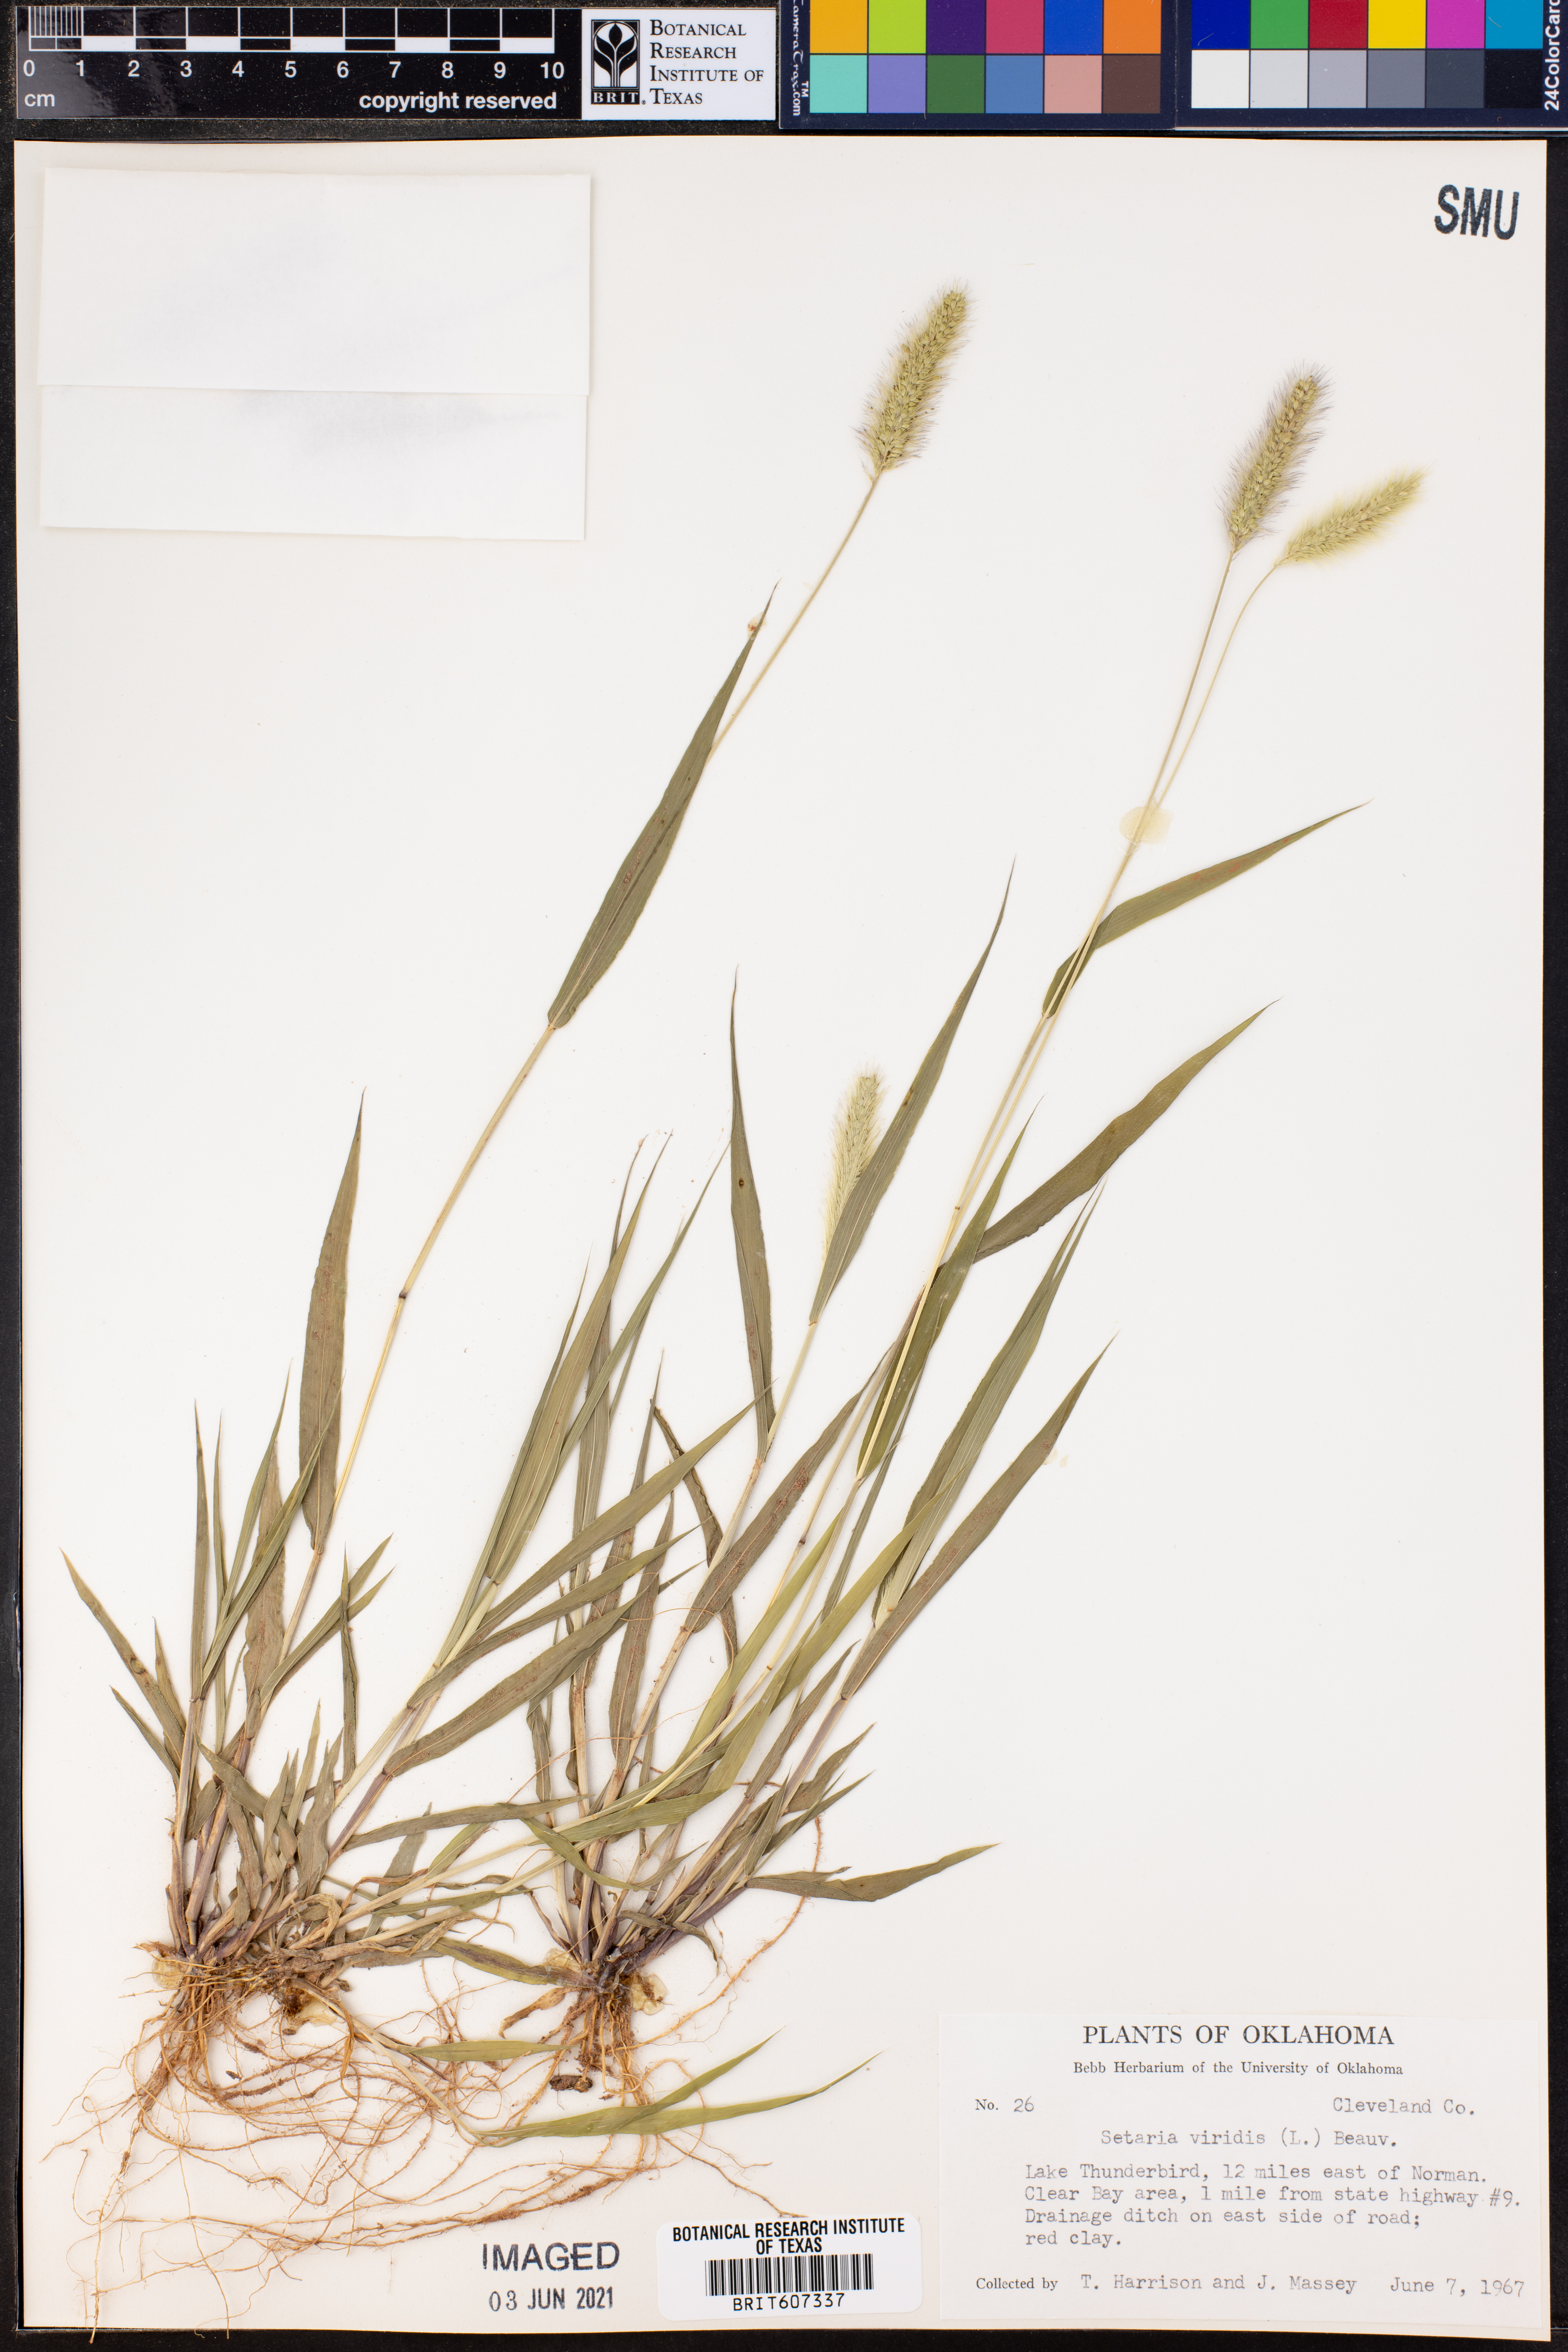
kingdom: Plantae
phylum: Tracheophyta
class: Liliopsida
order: Poales
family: Poaceae
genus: Setaria
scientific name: Setaria viridis
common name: Green bristlegrass
